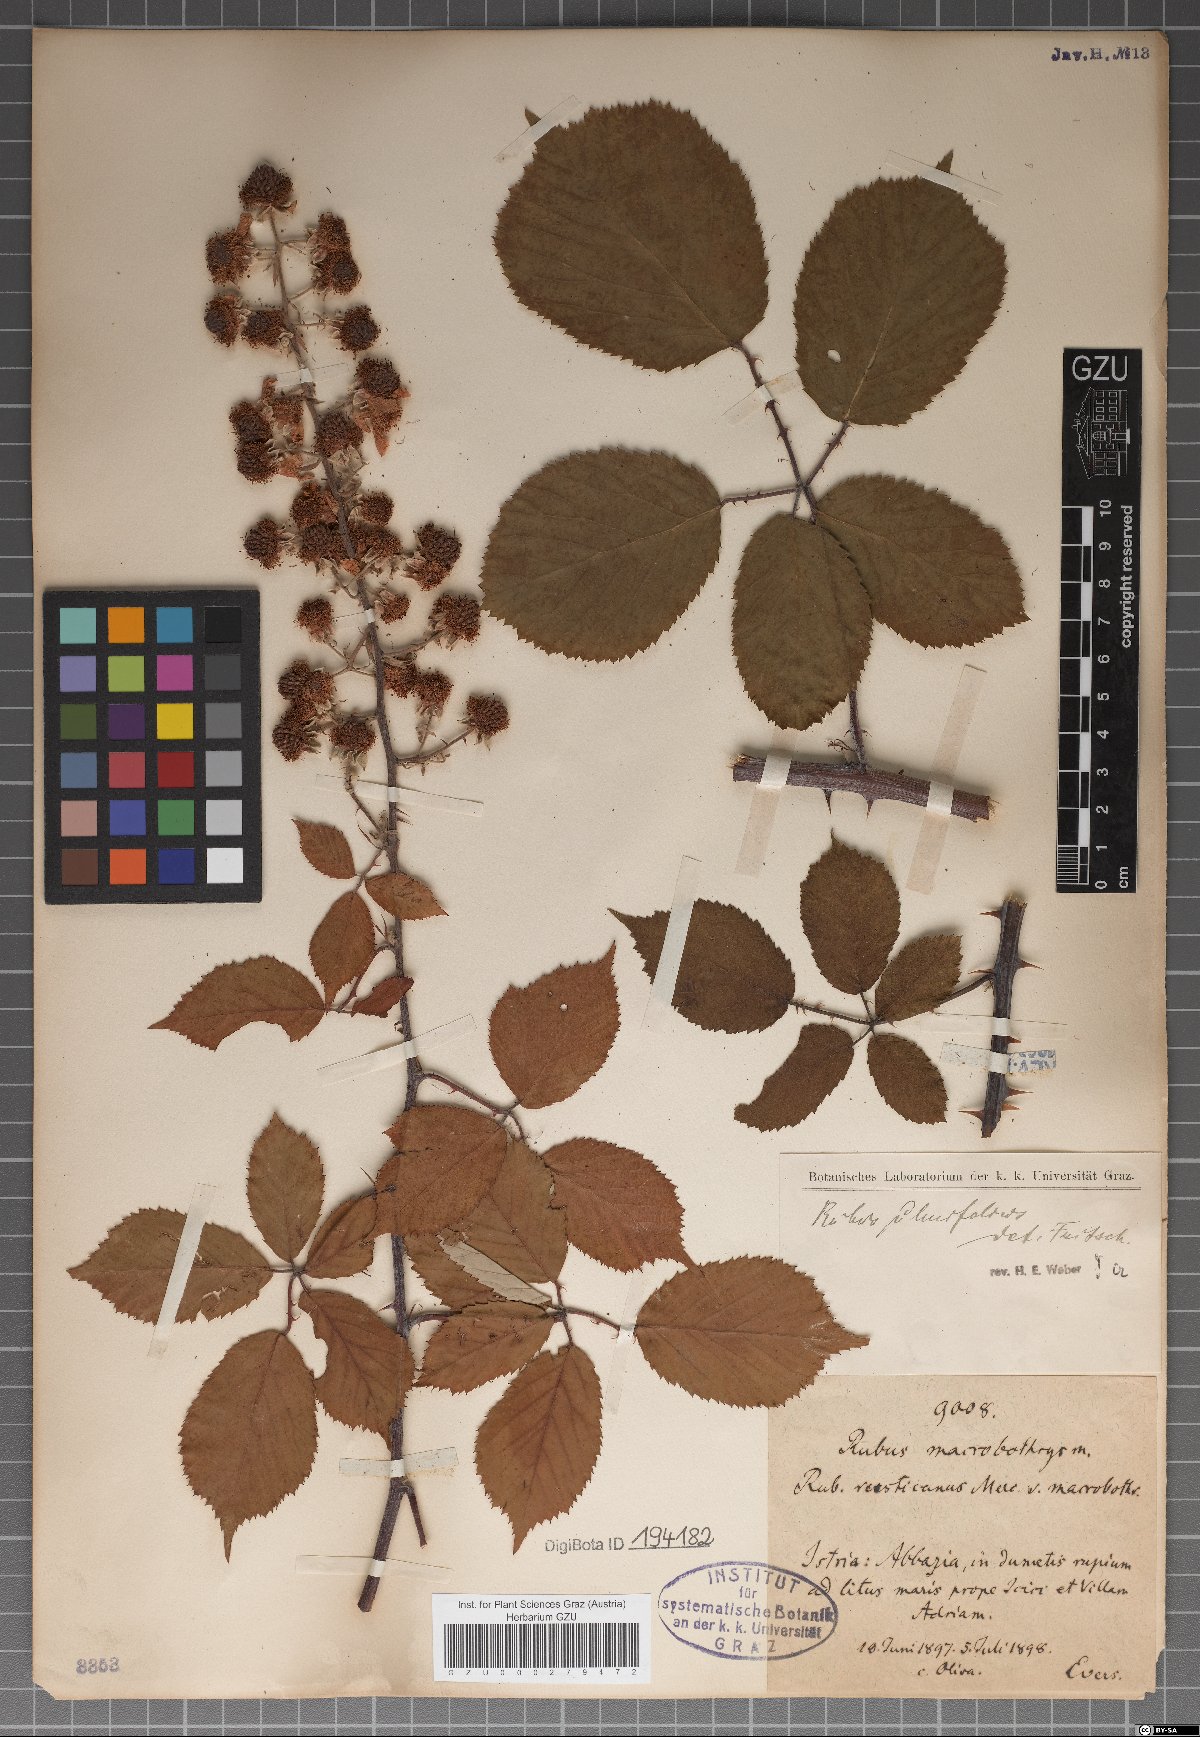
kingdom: Plantae
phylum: Tracheophyta
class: Magnoliopsida
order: Rosales
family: Rosaceae
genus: Rubus
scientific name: Rubus macrobothrys
